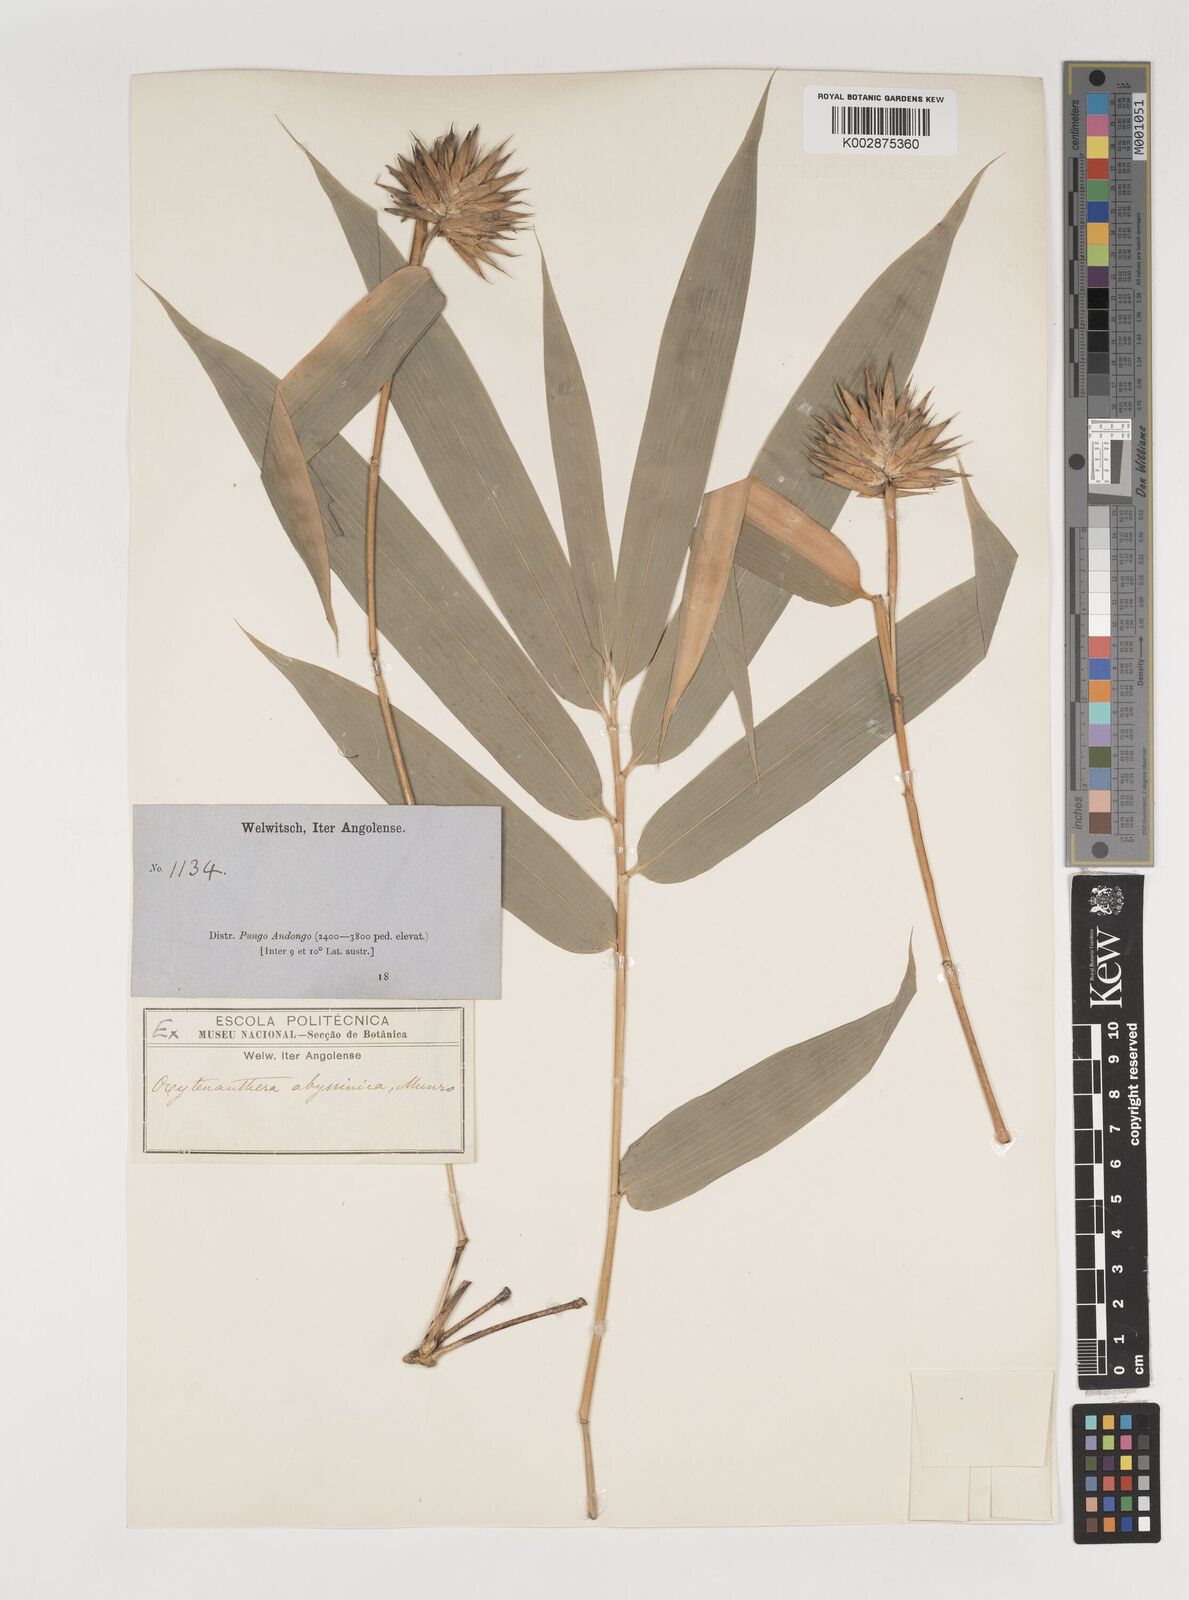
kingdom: Plantae
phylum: Tracheophyta
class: Liliopsida
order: Poales
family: Poaceae
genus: Oxytenanthera
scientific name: Oxytenanthera abyssinica
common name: Wine bamboo
